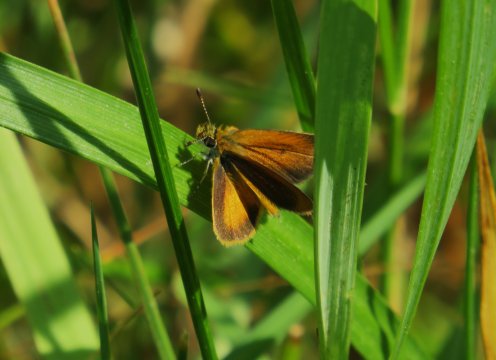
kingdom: Animalia
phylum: Arthropoda
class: Insecta
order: Lepidoptera
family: Hesperiidae
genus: Ancyloxypha
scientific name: Ancyloxypha numitor
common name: Least Skipper
